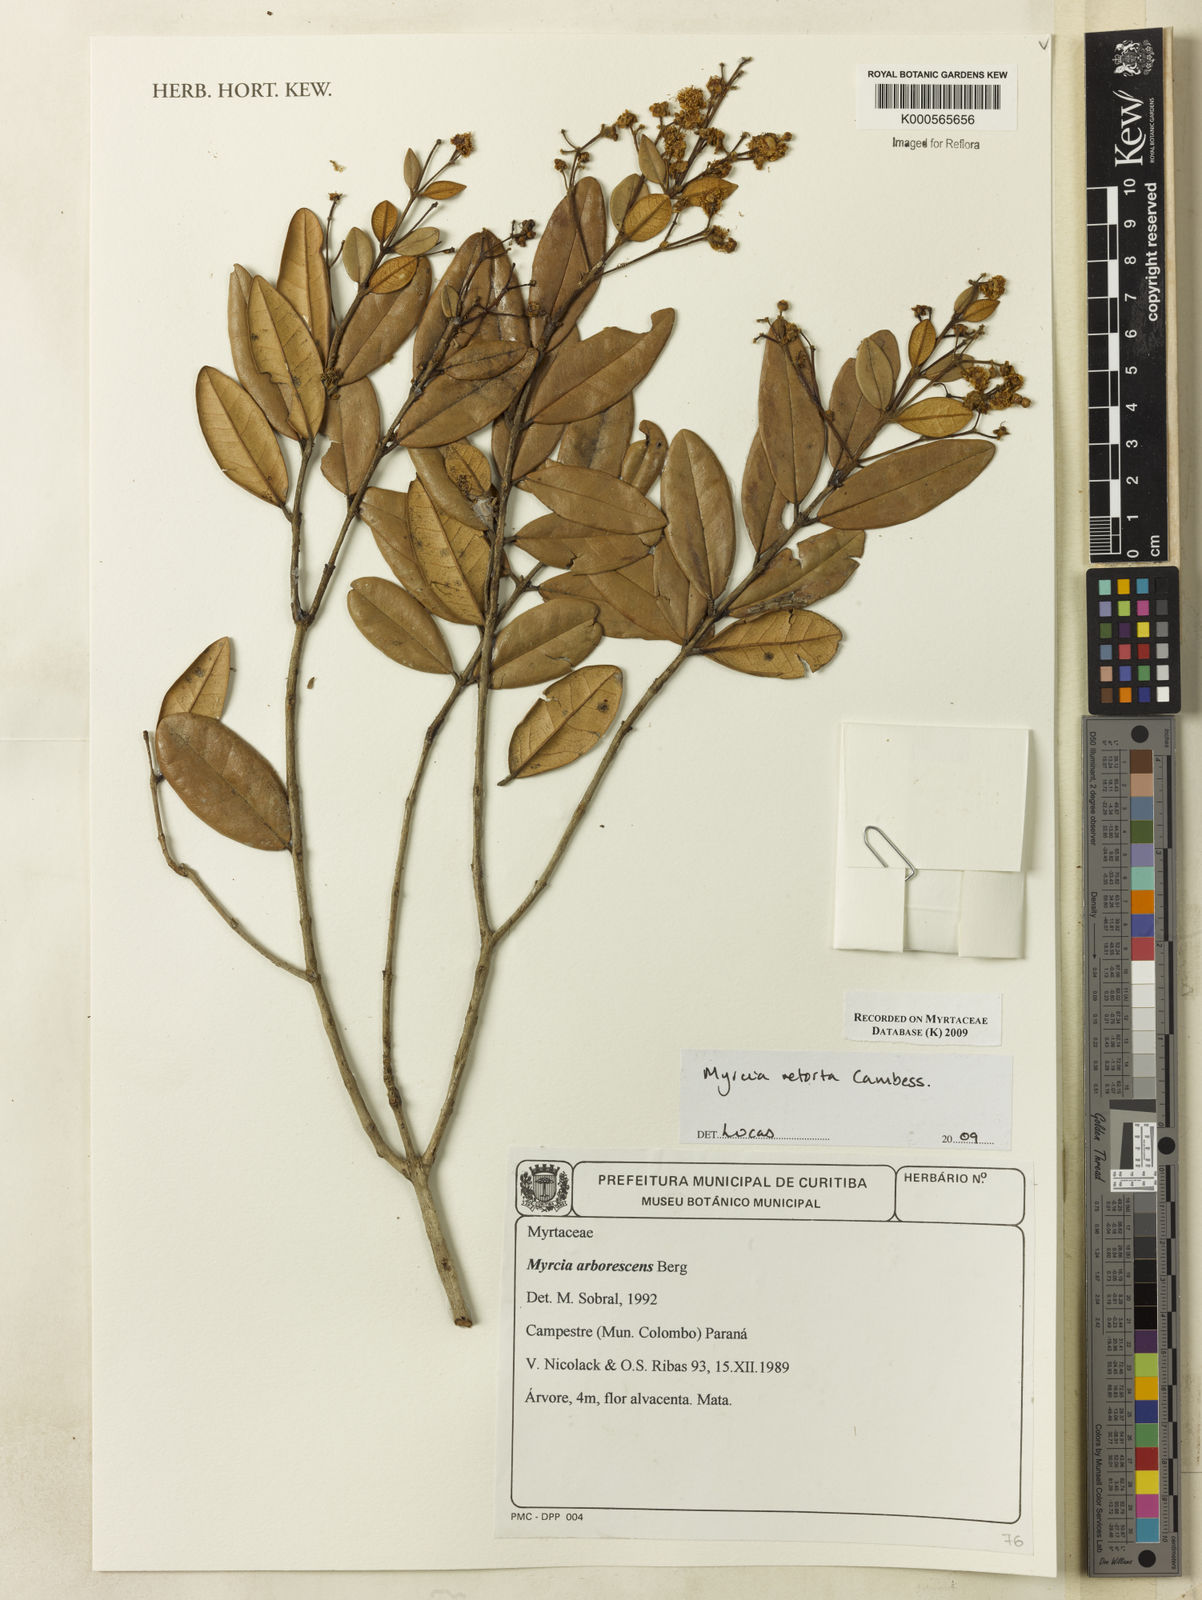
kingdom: Plantae
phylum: Tracheophyta
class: Magnoliopsida
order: Myrtales
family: Myrtaceae
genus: Myrcia
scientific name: Myrcia retorta
